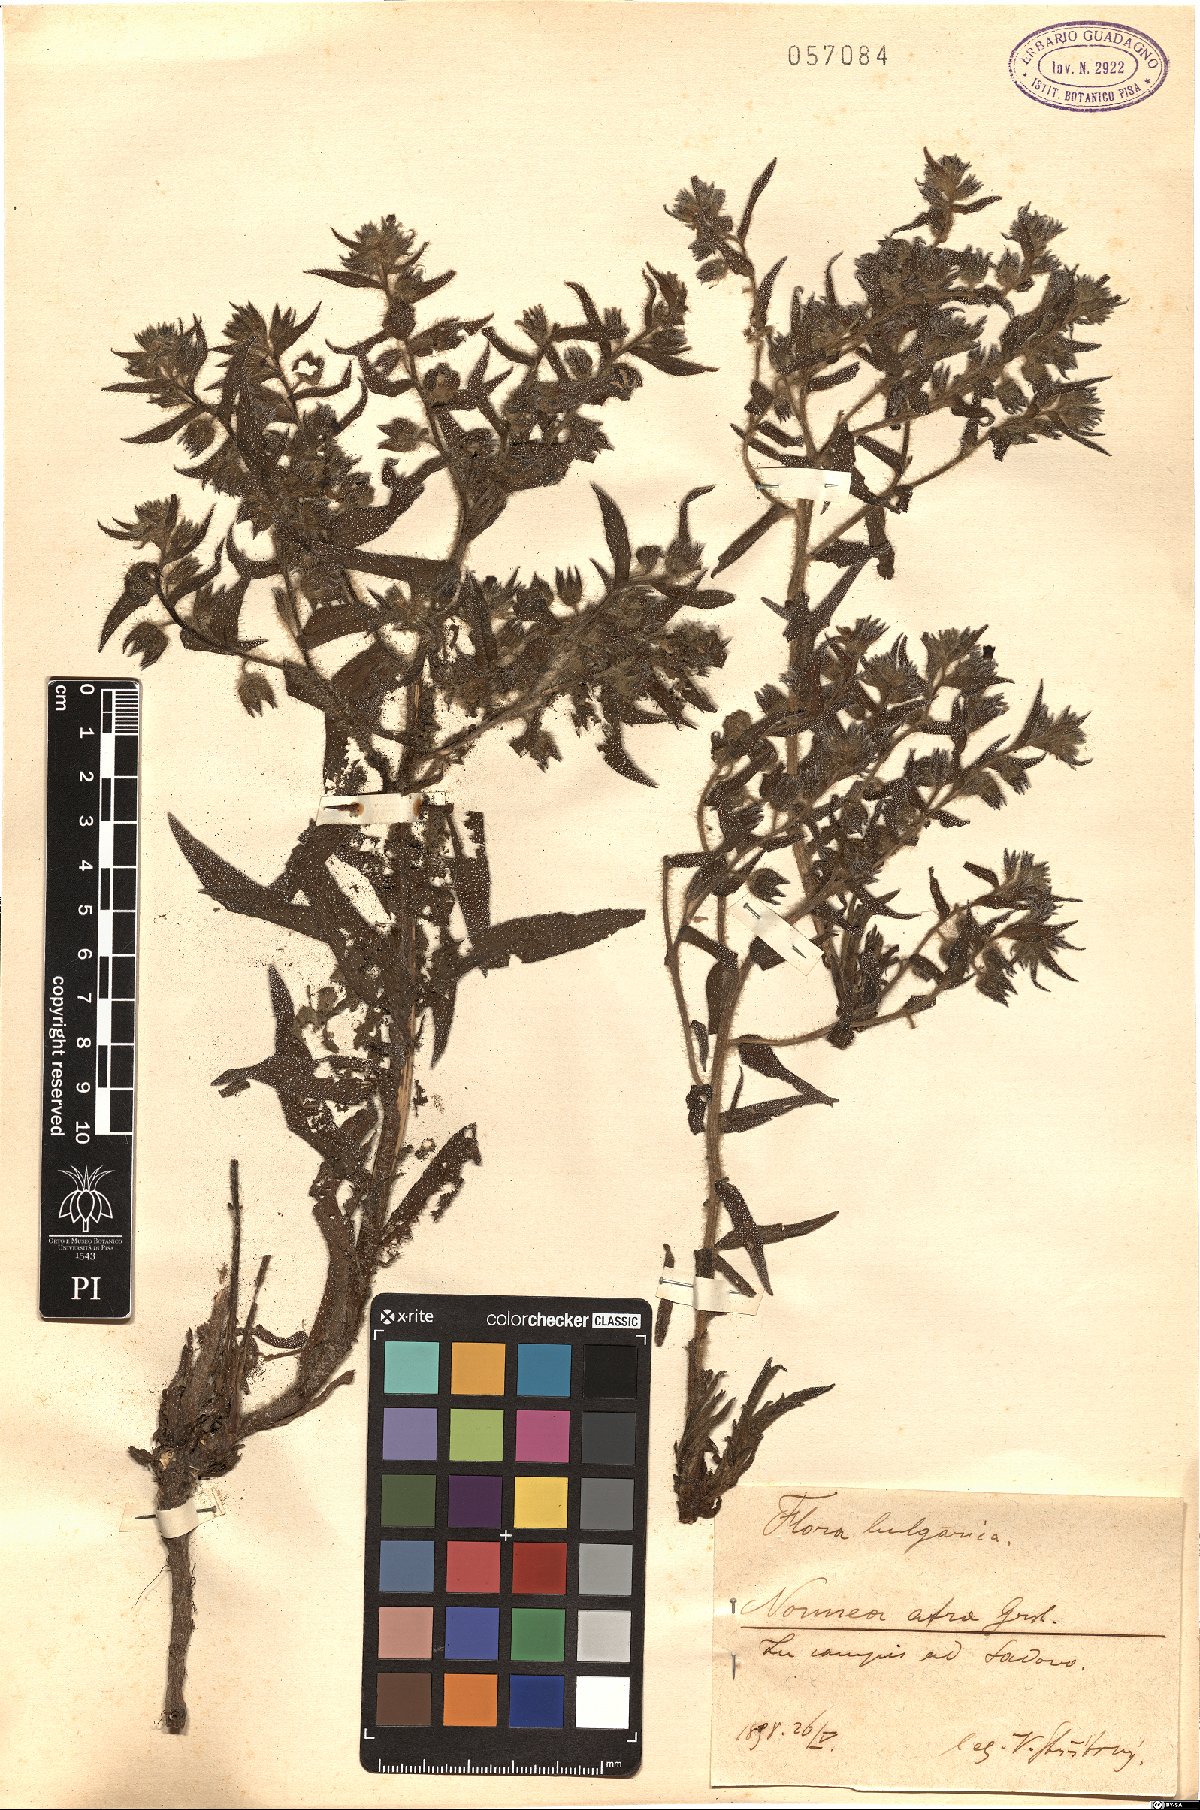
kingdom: Plantae
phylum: Tracheophyta
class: Magnoliopsida
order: Boraginales
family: Boraginaceae
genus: Nonea
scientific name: Nonea atra
